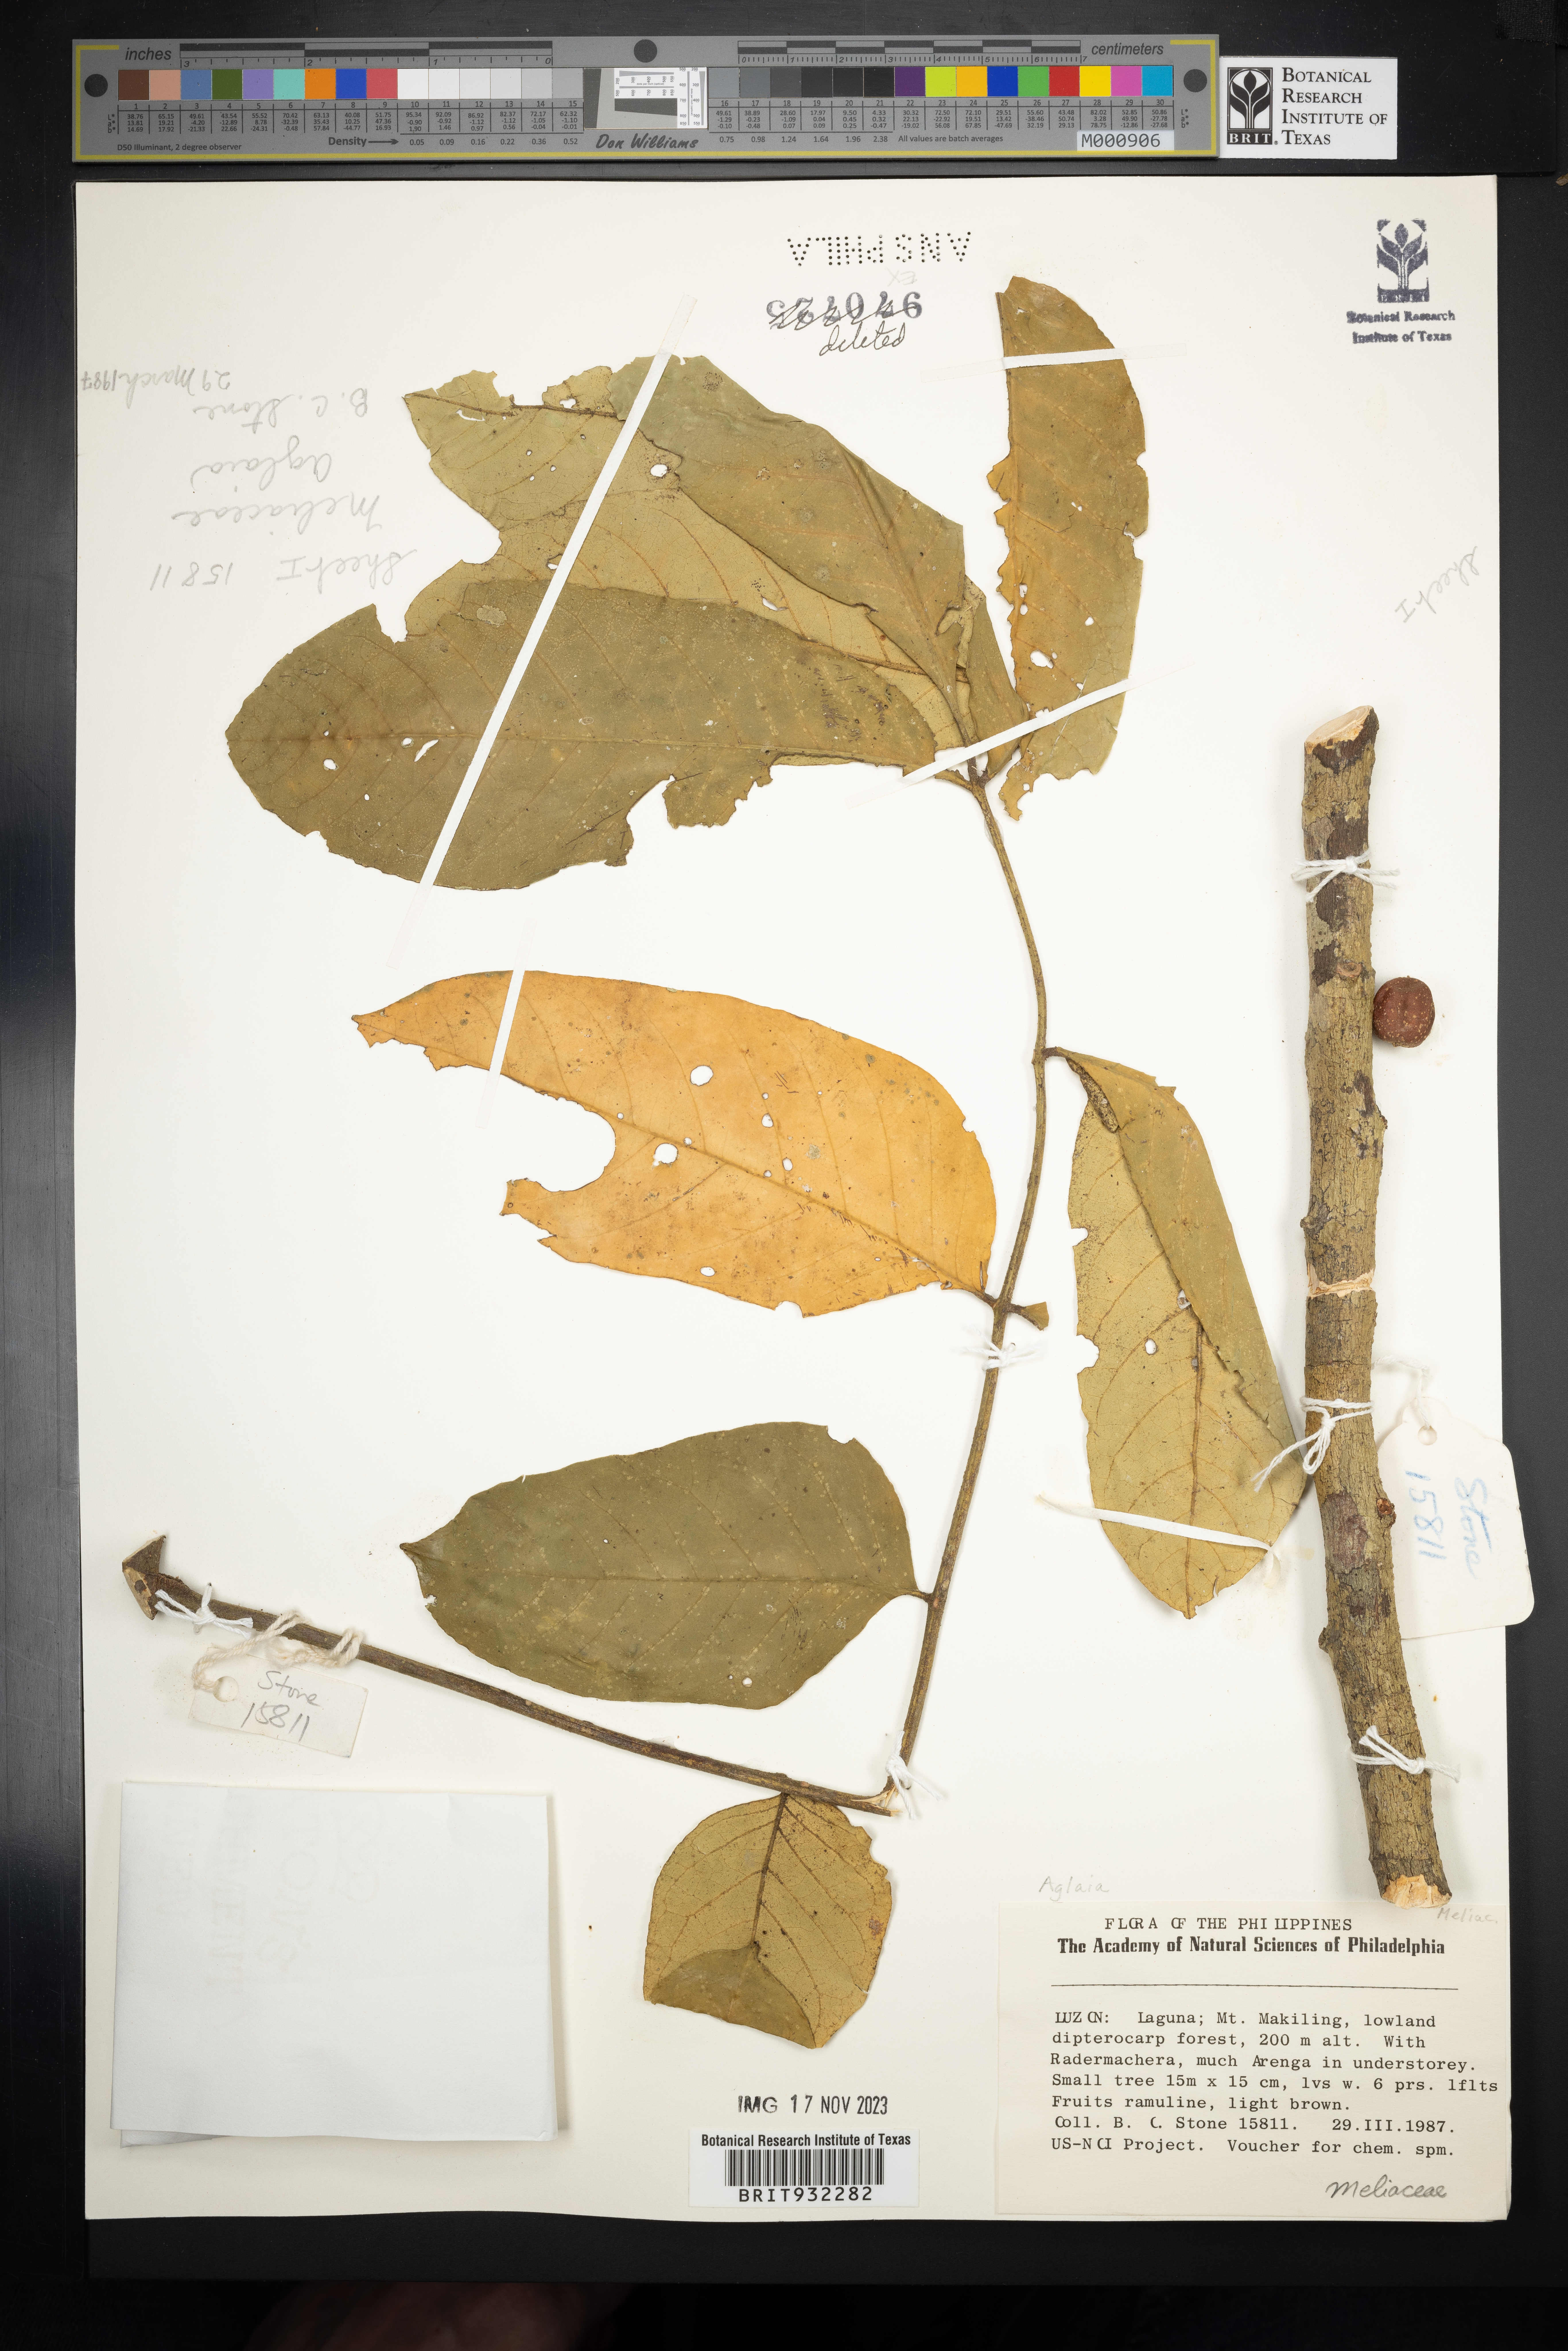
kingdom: Plantae
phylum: Tracheophyta
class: Magnoliopsida
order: Sapindales
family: Meliaceae
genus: Aglaia
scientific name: Aglaia
